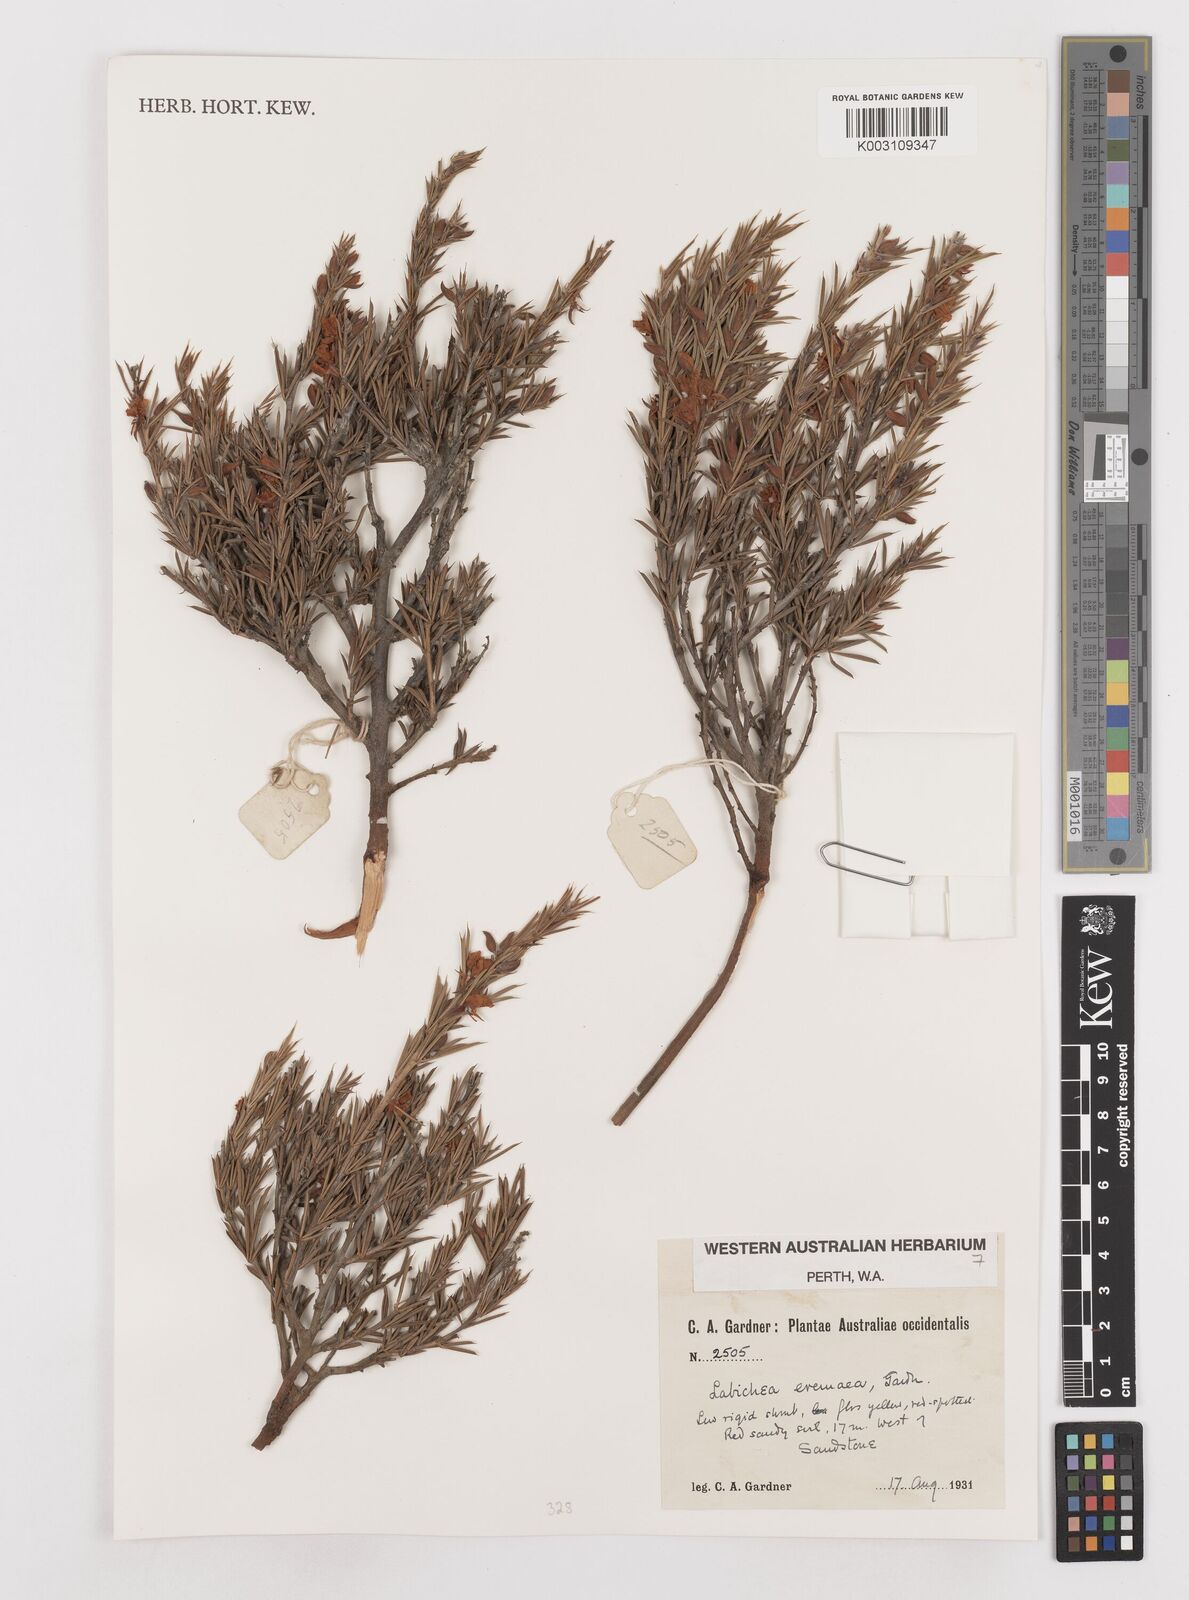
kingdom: Plantae
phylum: Tracheophyta
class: Magnoliopsida
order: Fabales
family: Fabaceae
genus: Labichea
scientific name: Labichea eremaea
